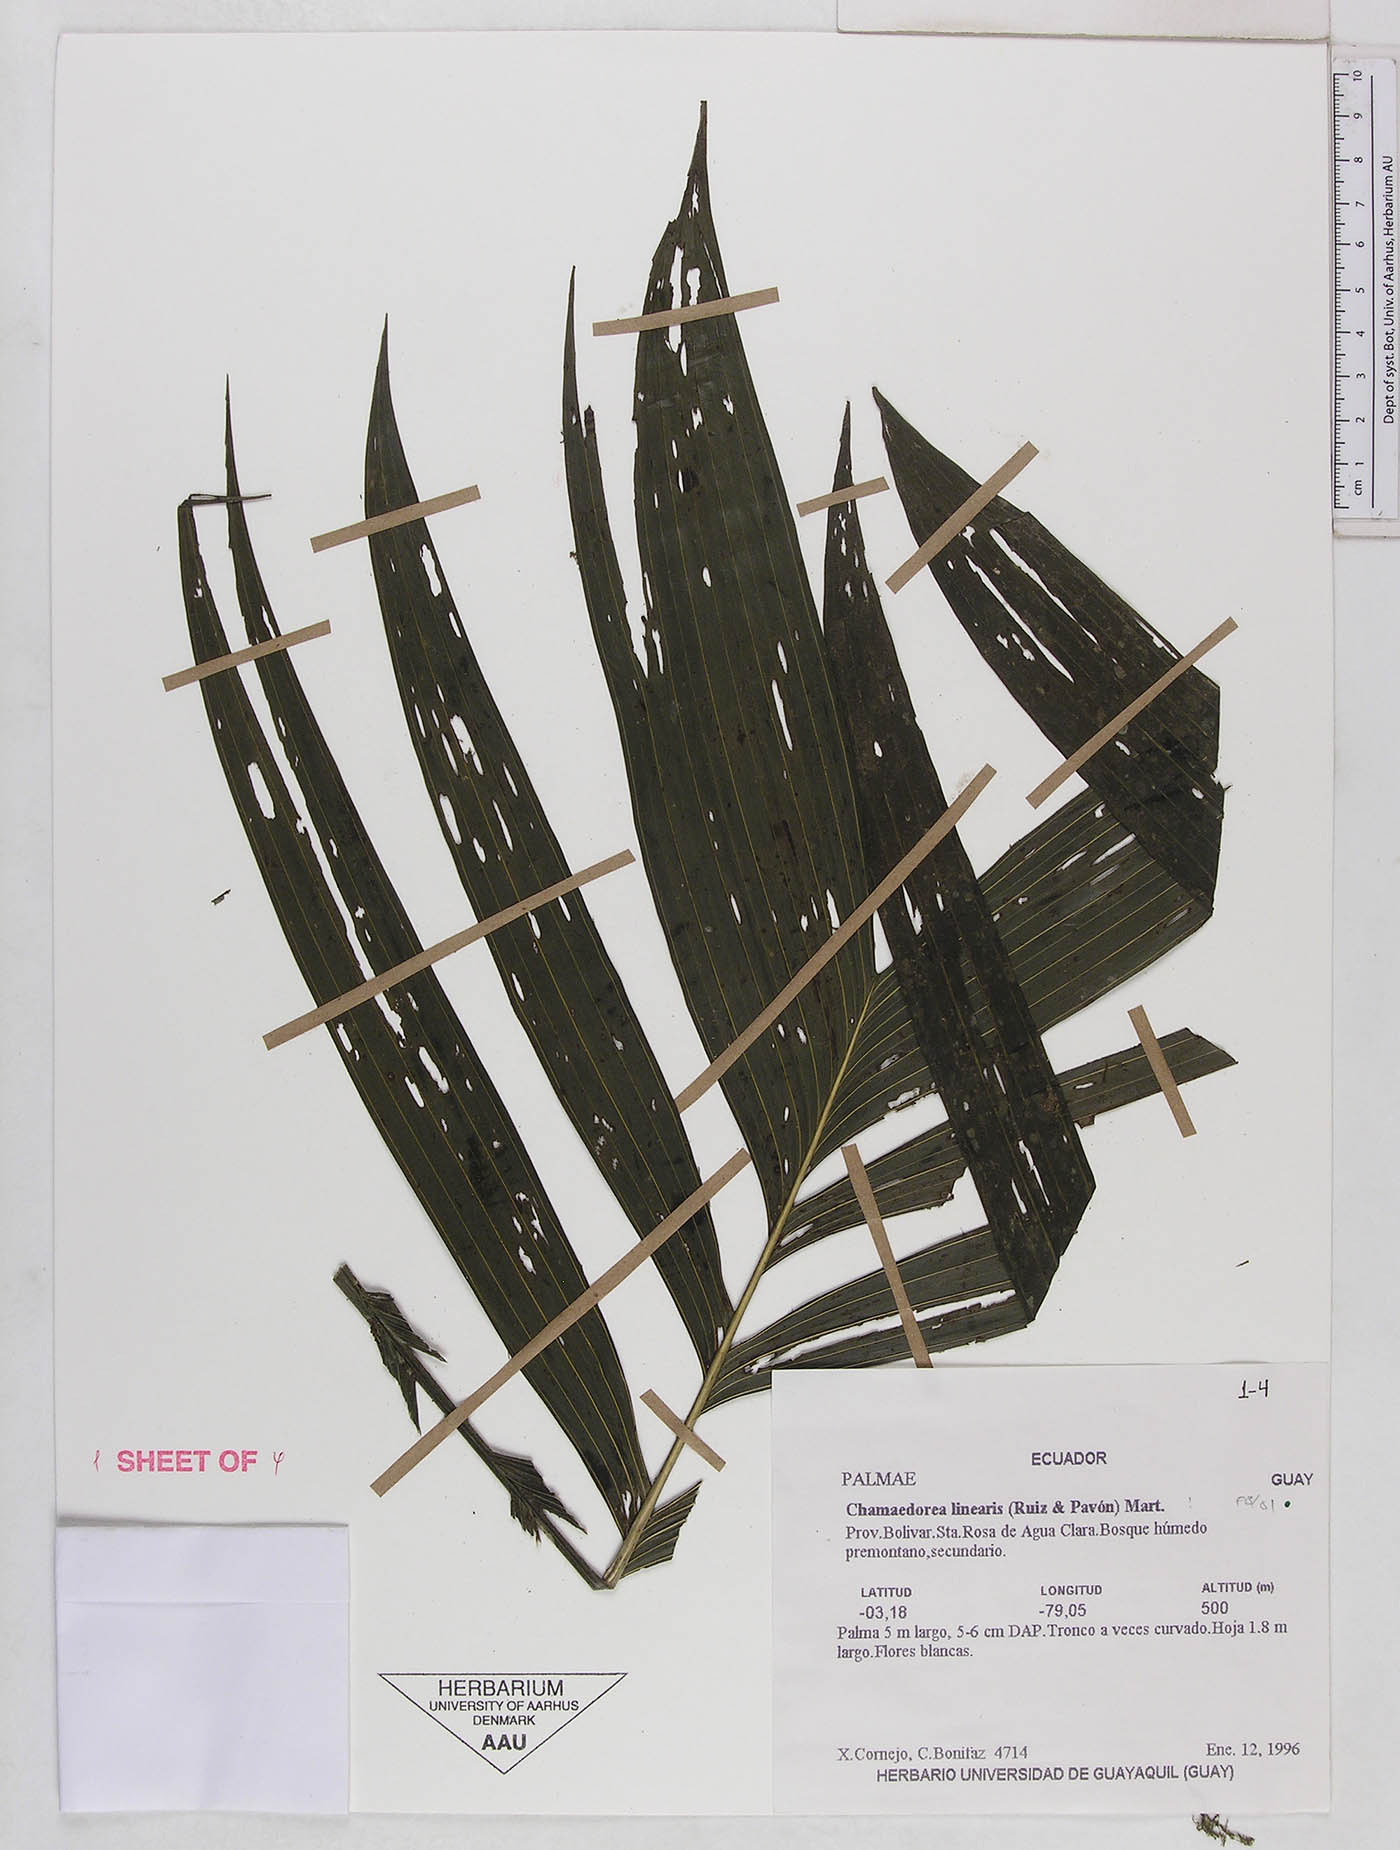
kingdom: Plantae
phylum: Tracheophyta
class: Liliopsida
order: Arecales
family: Arecaceae
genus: Chamaedorea
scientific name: Chamaedorea linearis
